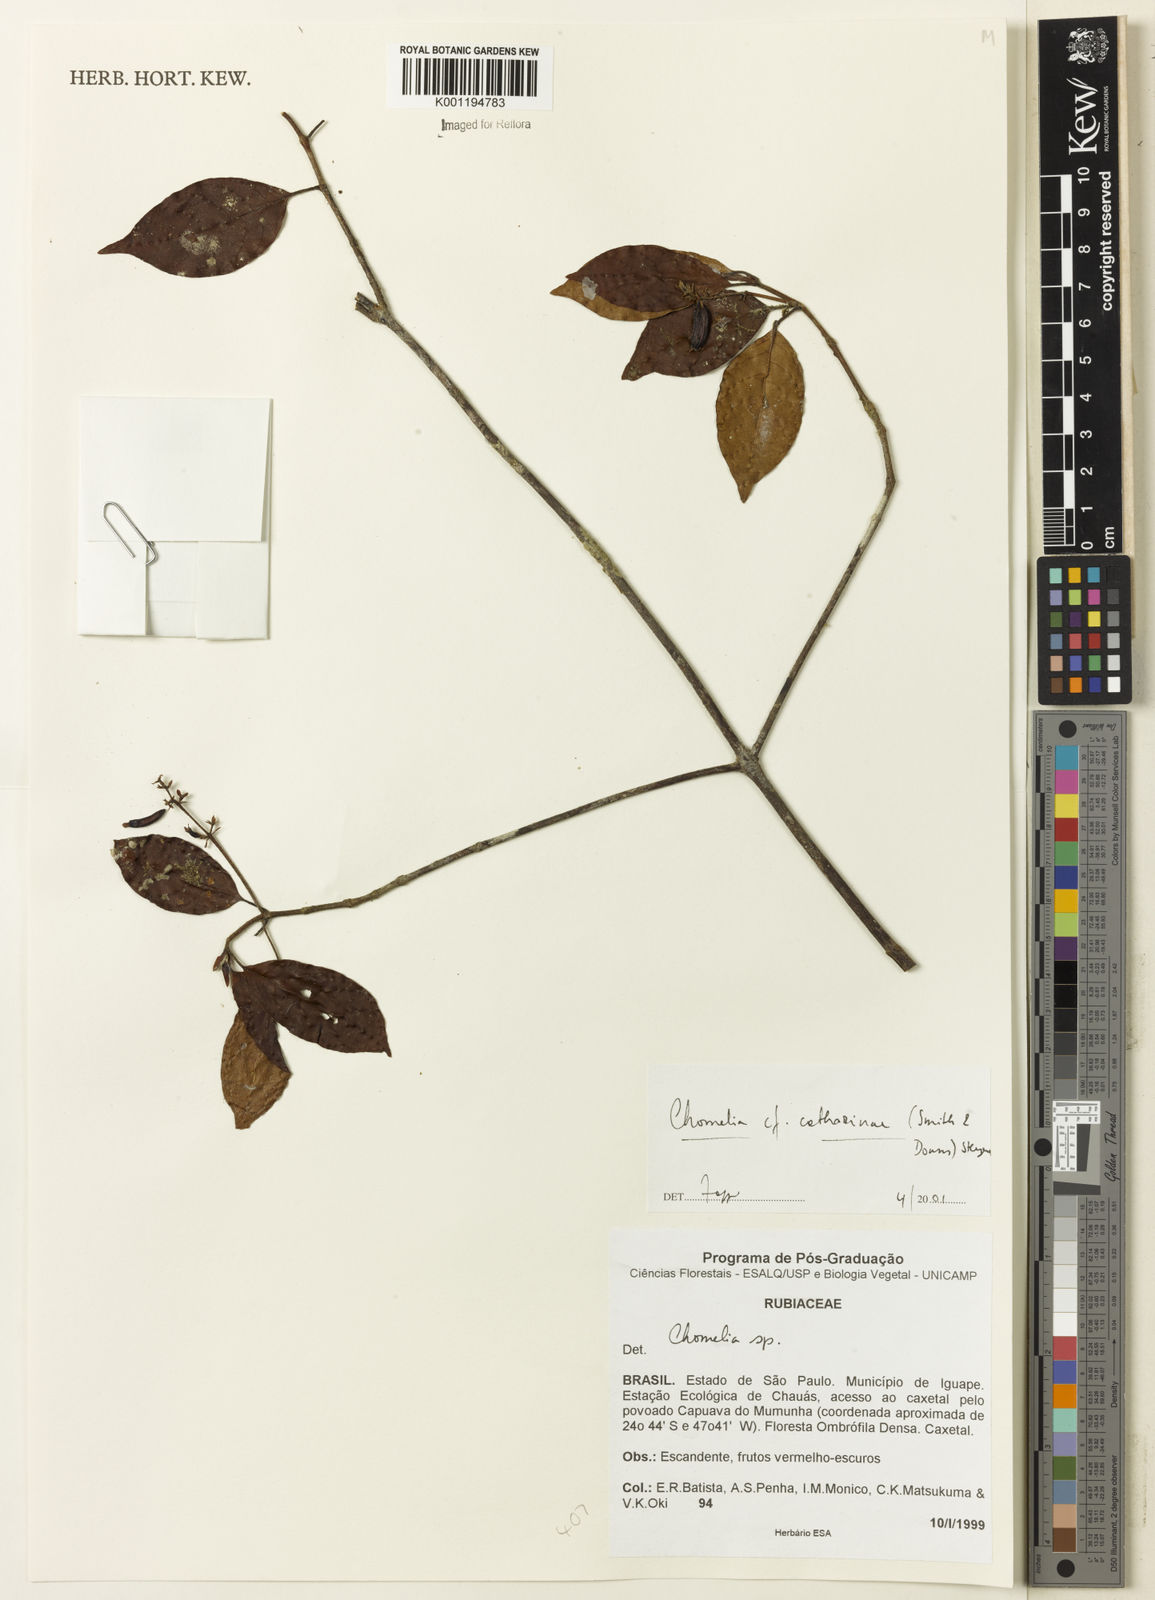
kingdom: Plantae
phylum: Tracheophyta
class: Magnoliopsida
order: Gentianales
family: Rubiaceae
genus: Chomelia
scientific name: Chomelia parvifolia
